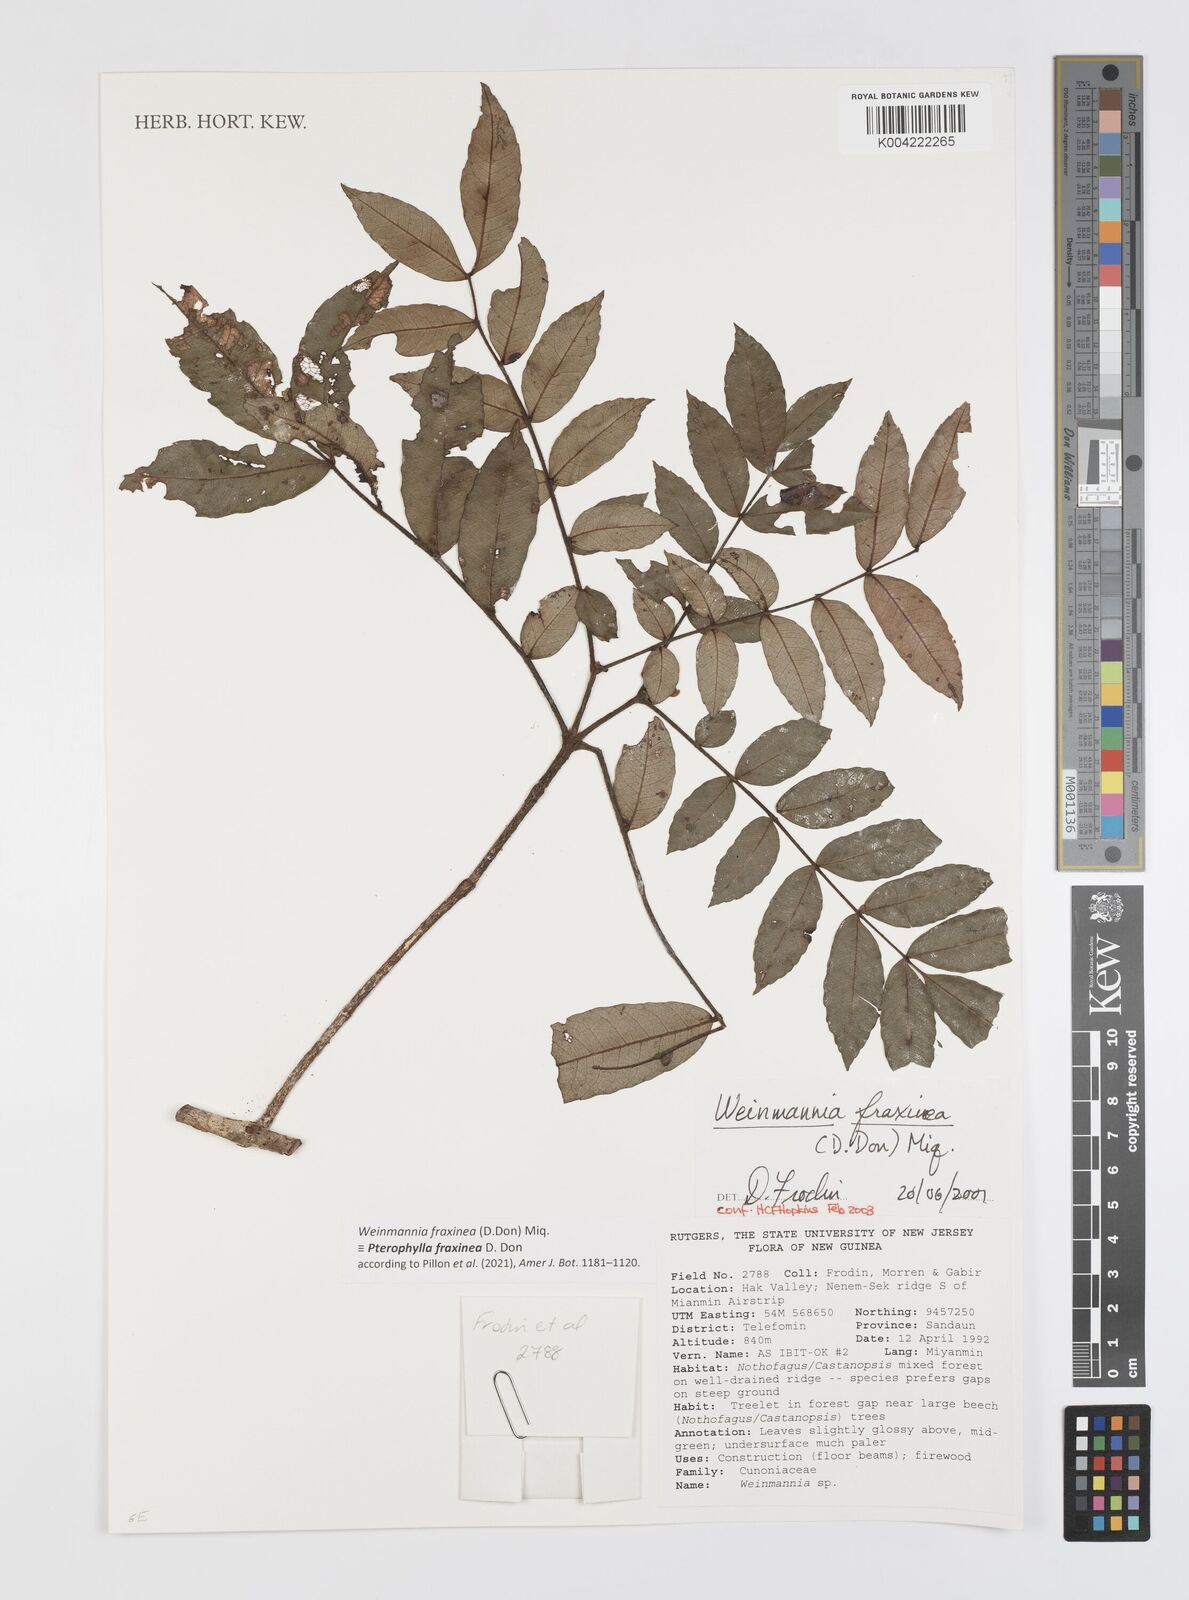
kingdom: Plantae
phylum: Tracheophyta
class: Magnoliopsida
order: Oxalidales
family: Cunoniaceae
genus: Pterophylla
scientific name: Pterophylla fraxinea
